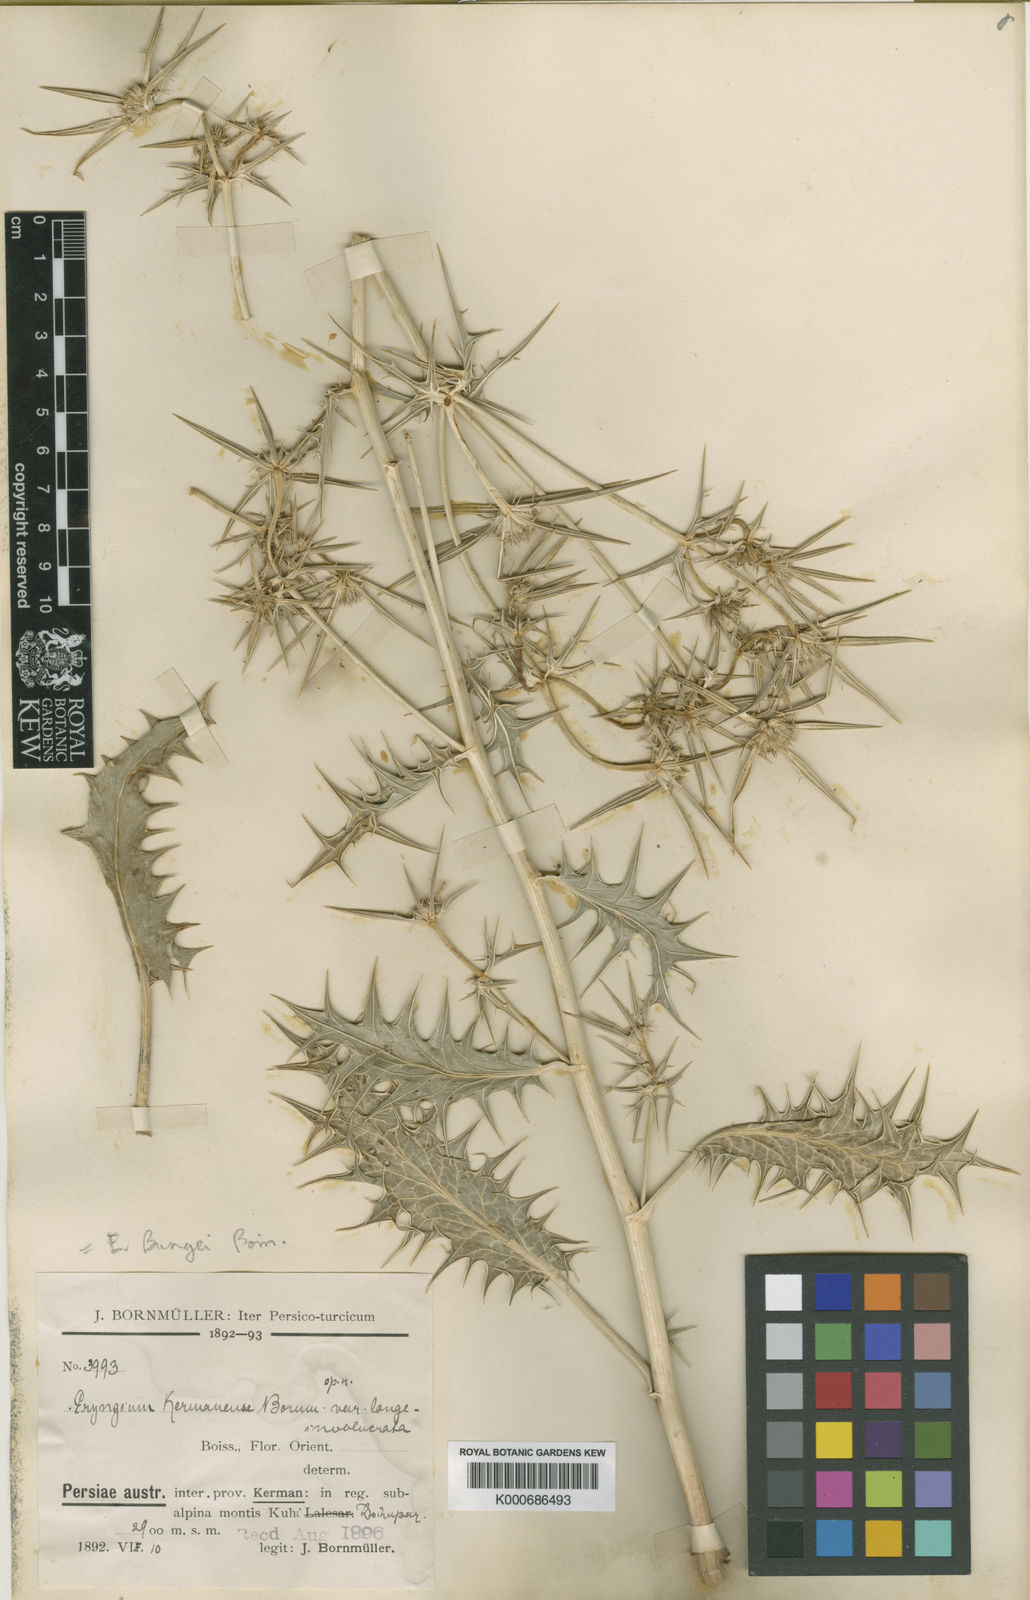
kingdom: Plantae
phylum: Tracheophyta
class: Magnoliopsida
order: Apiales
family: Apiaceae
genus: Eryngium
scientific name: Eryngium bungei
